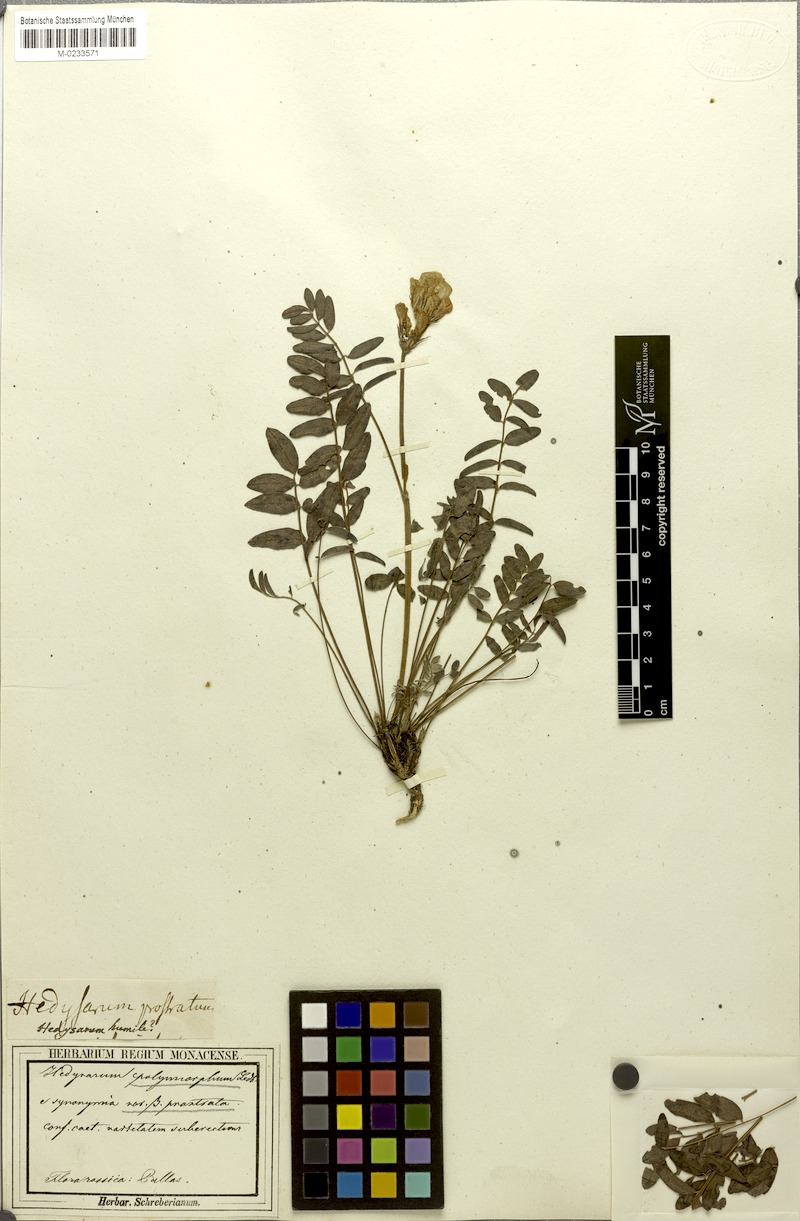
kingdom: Plantae
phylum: Tracheophyta
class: Magnoliopsida
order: Fabales
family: Fabaceae
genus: Hedysarum
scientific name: Hedysarum roseum
